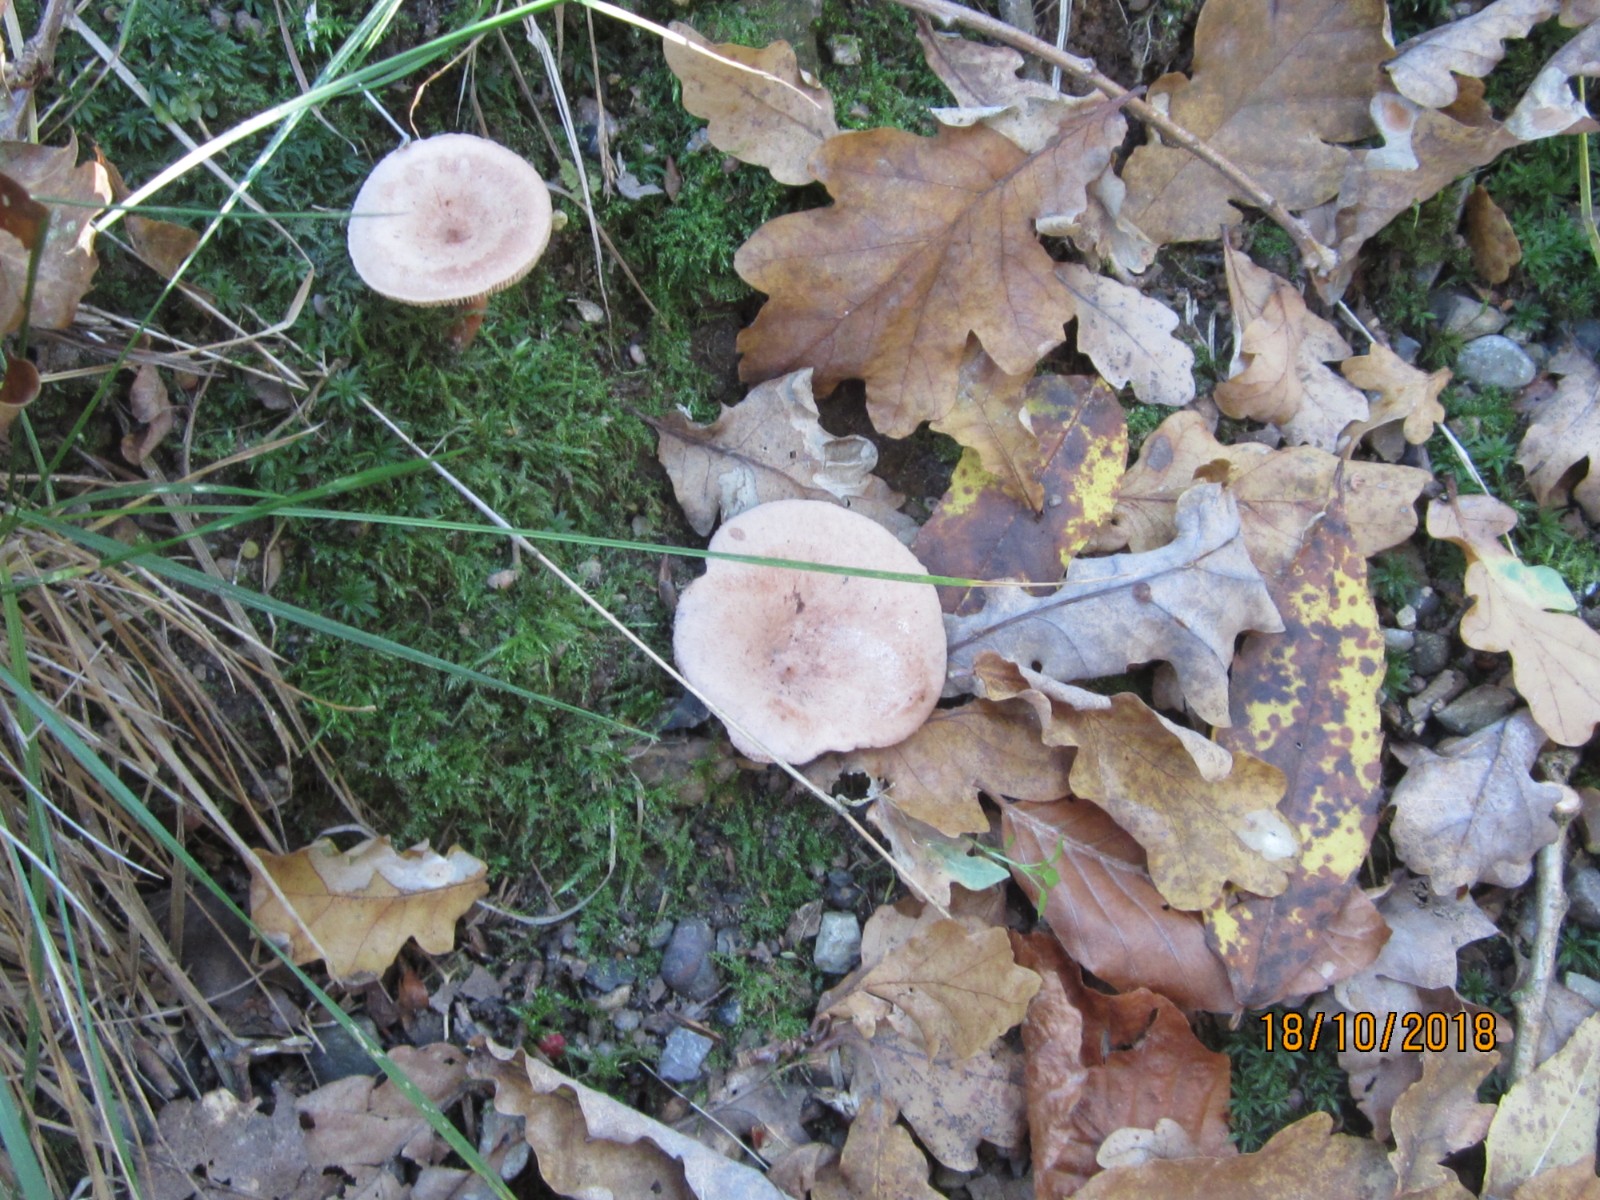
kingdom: Fungi
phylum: Basidiomycota
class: Agaricomycetes
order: Agaricales
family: Tricholomataceae
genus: Infundibulicybe
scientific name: Infundibulicybe gibba
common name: almindelig tragthat
